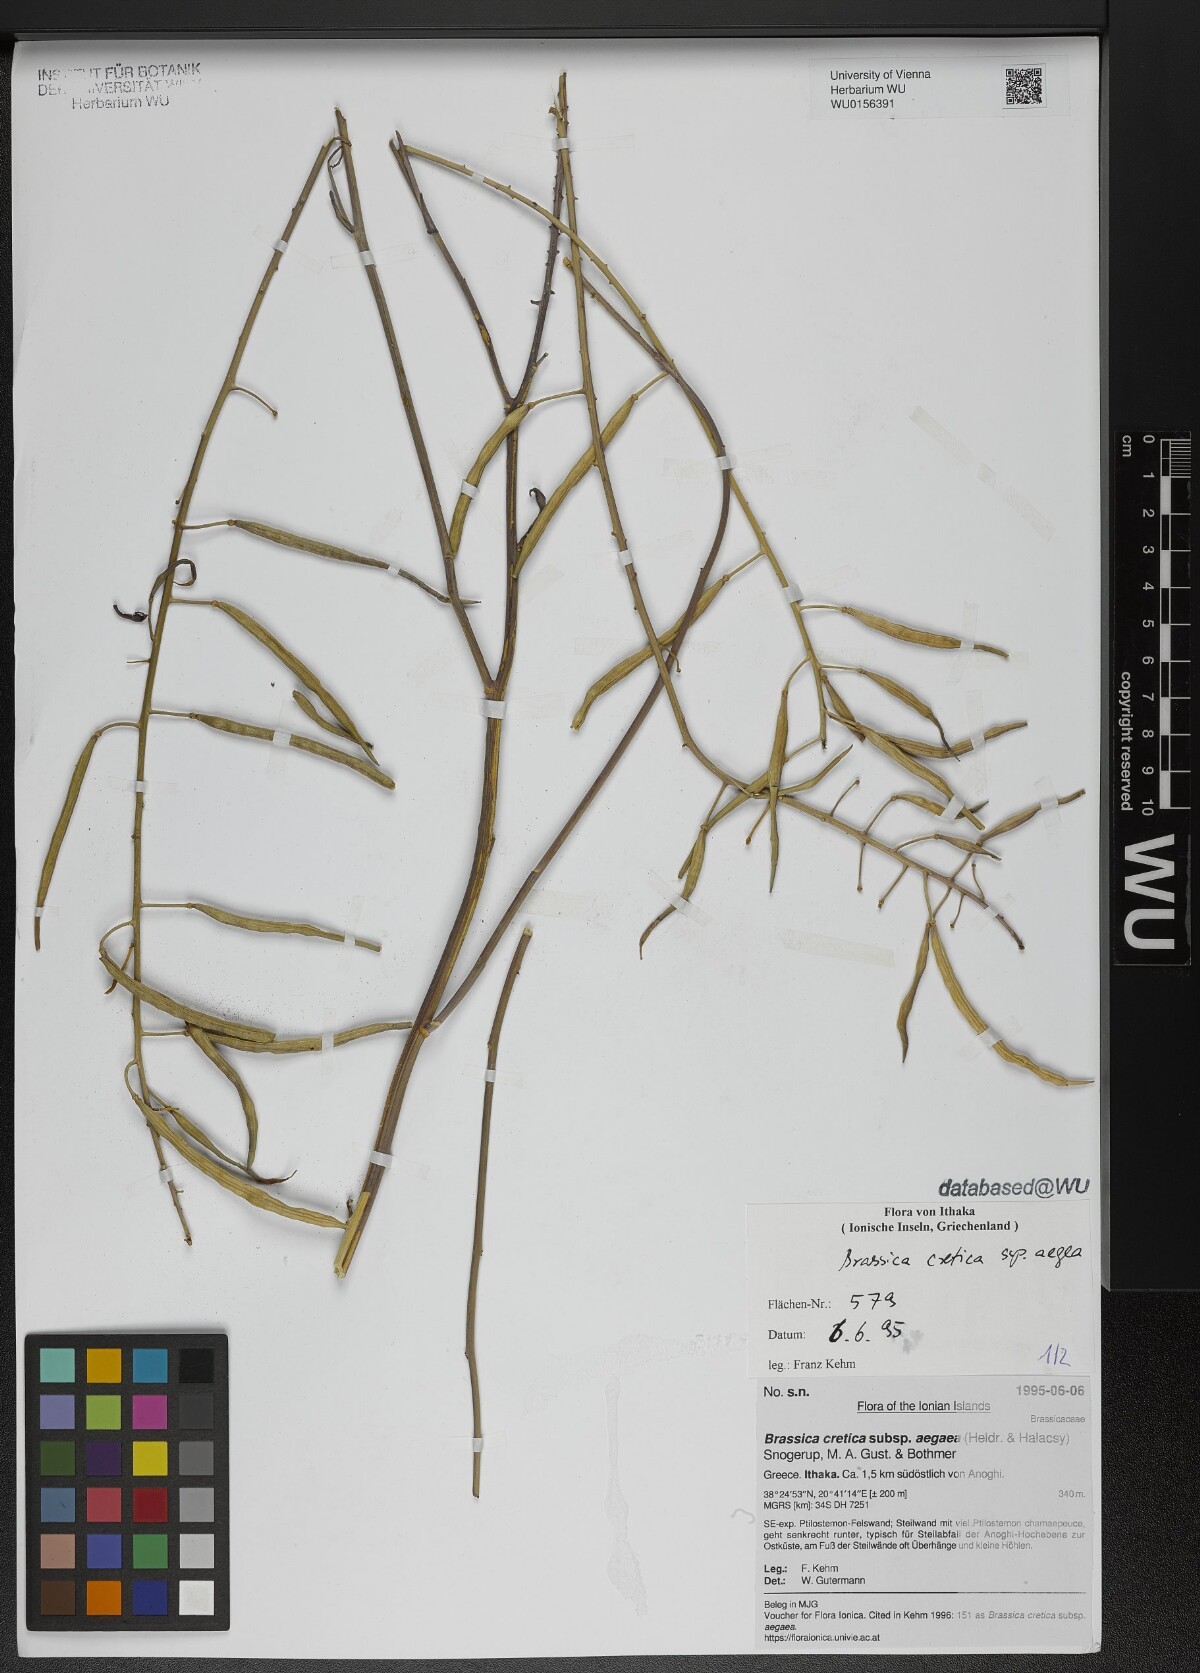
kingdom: Plantae
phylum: Tracheophyta
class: Magnoliopsida
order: Brassicales
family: Brassicaceae
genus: Brassica
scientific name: Brassica cretica
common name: Mustard
